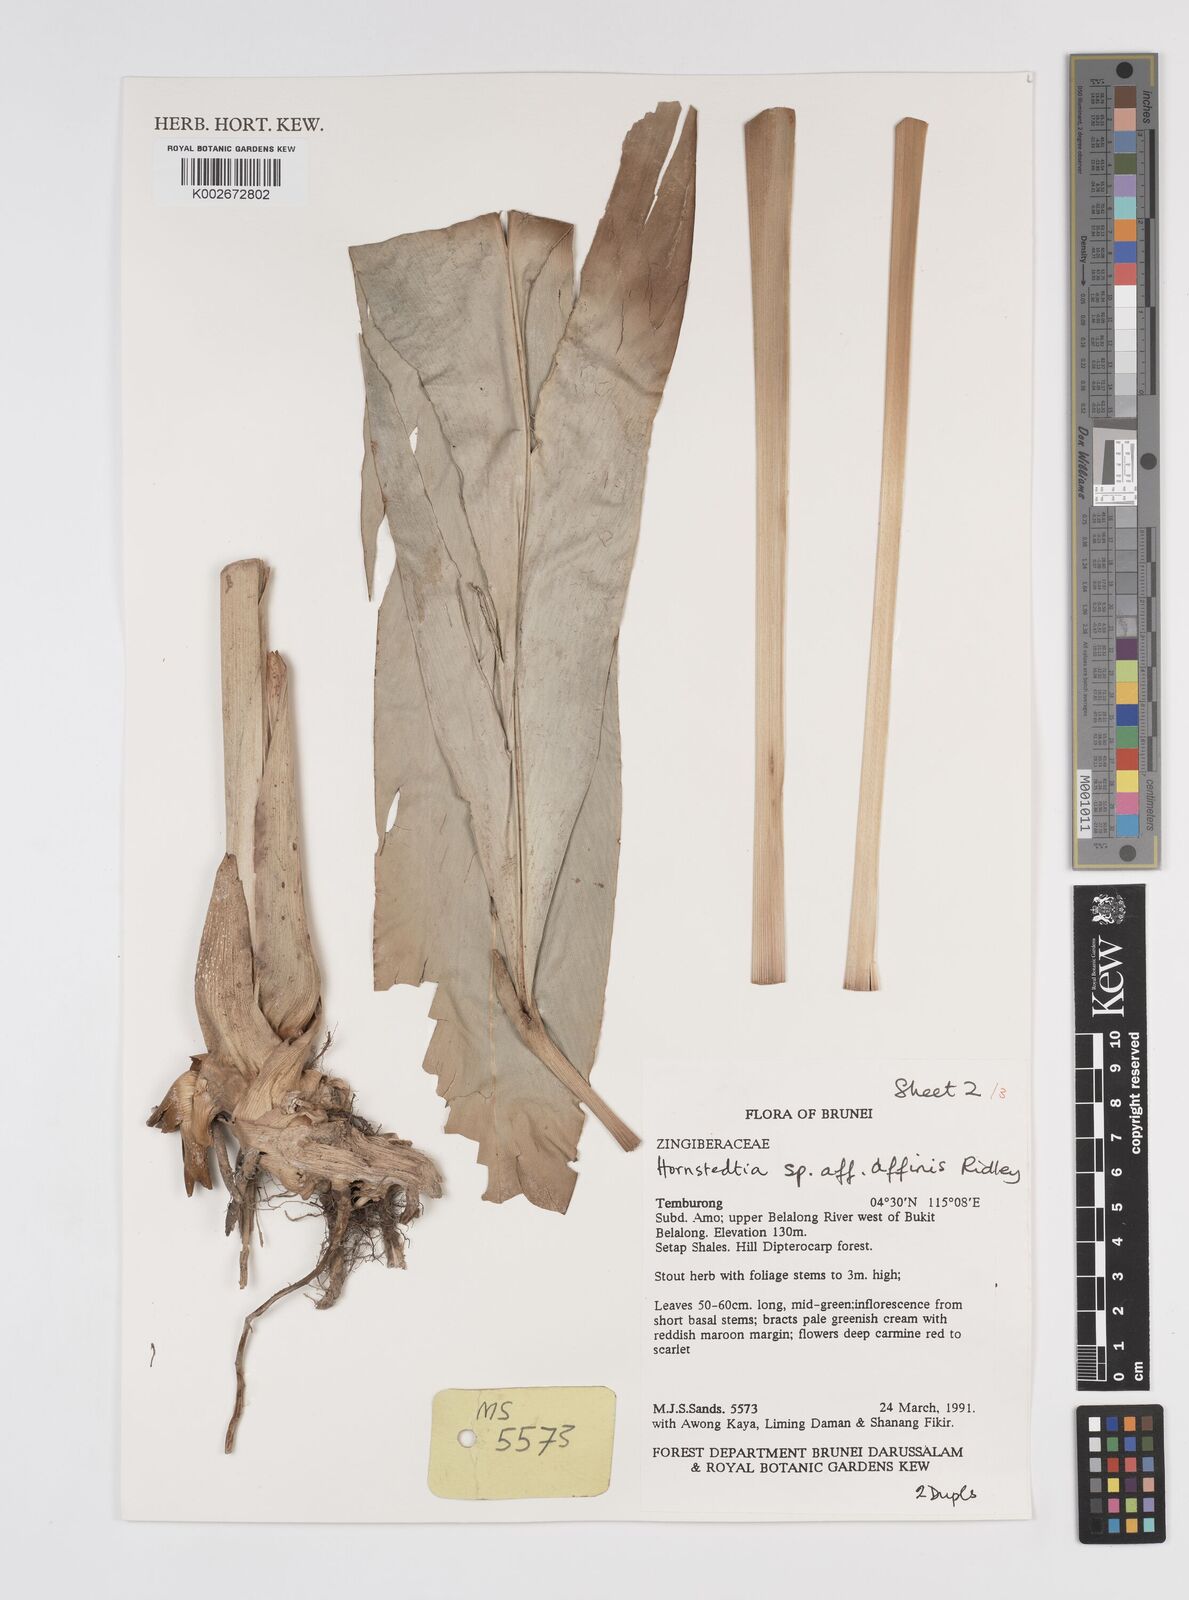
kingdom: Plantae
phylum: Tracheophyta
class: Liliopsida
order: Zingiberales
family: Zingiberaceae
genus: Etlingera
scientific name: Etlingera rubromarginata
